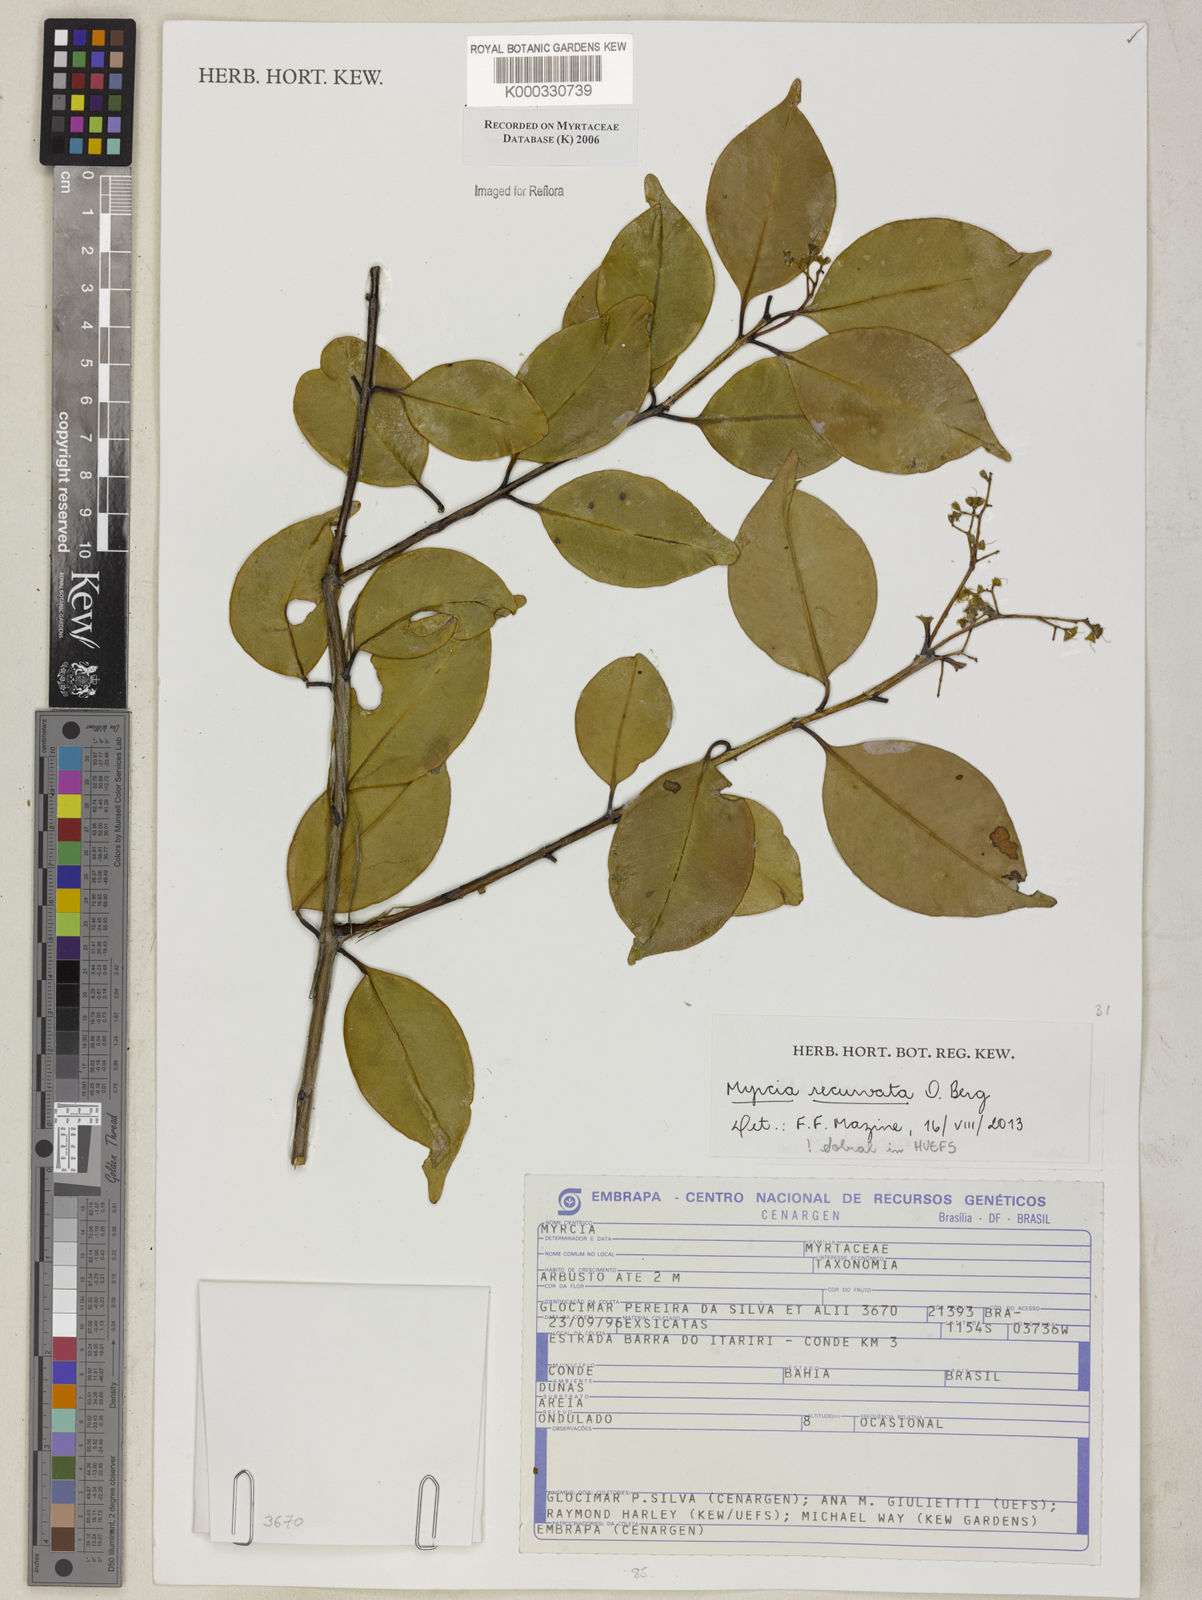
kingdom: Plantae
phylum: Tracheophyta
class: Magnoliopsida
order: Myrtales
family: Myrtaceae
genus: Marlierea
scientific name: Marlierea
